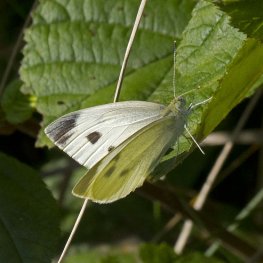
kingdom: Animalia
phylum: Arthropoda
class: Insecta
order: Lepidoptera
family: Pieridae
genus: Pieris
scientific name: Pieris rapae
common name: Cabbage White
